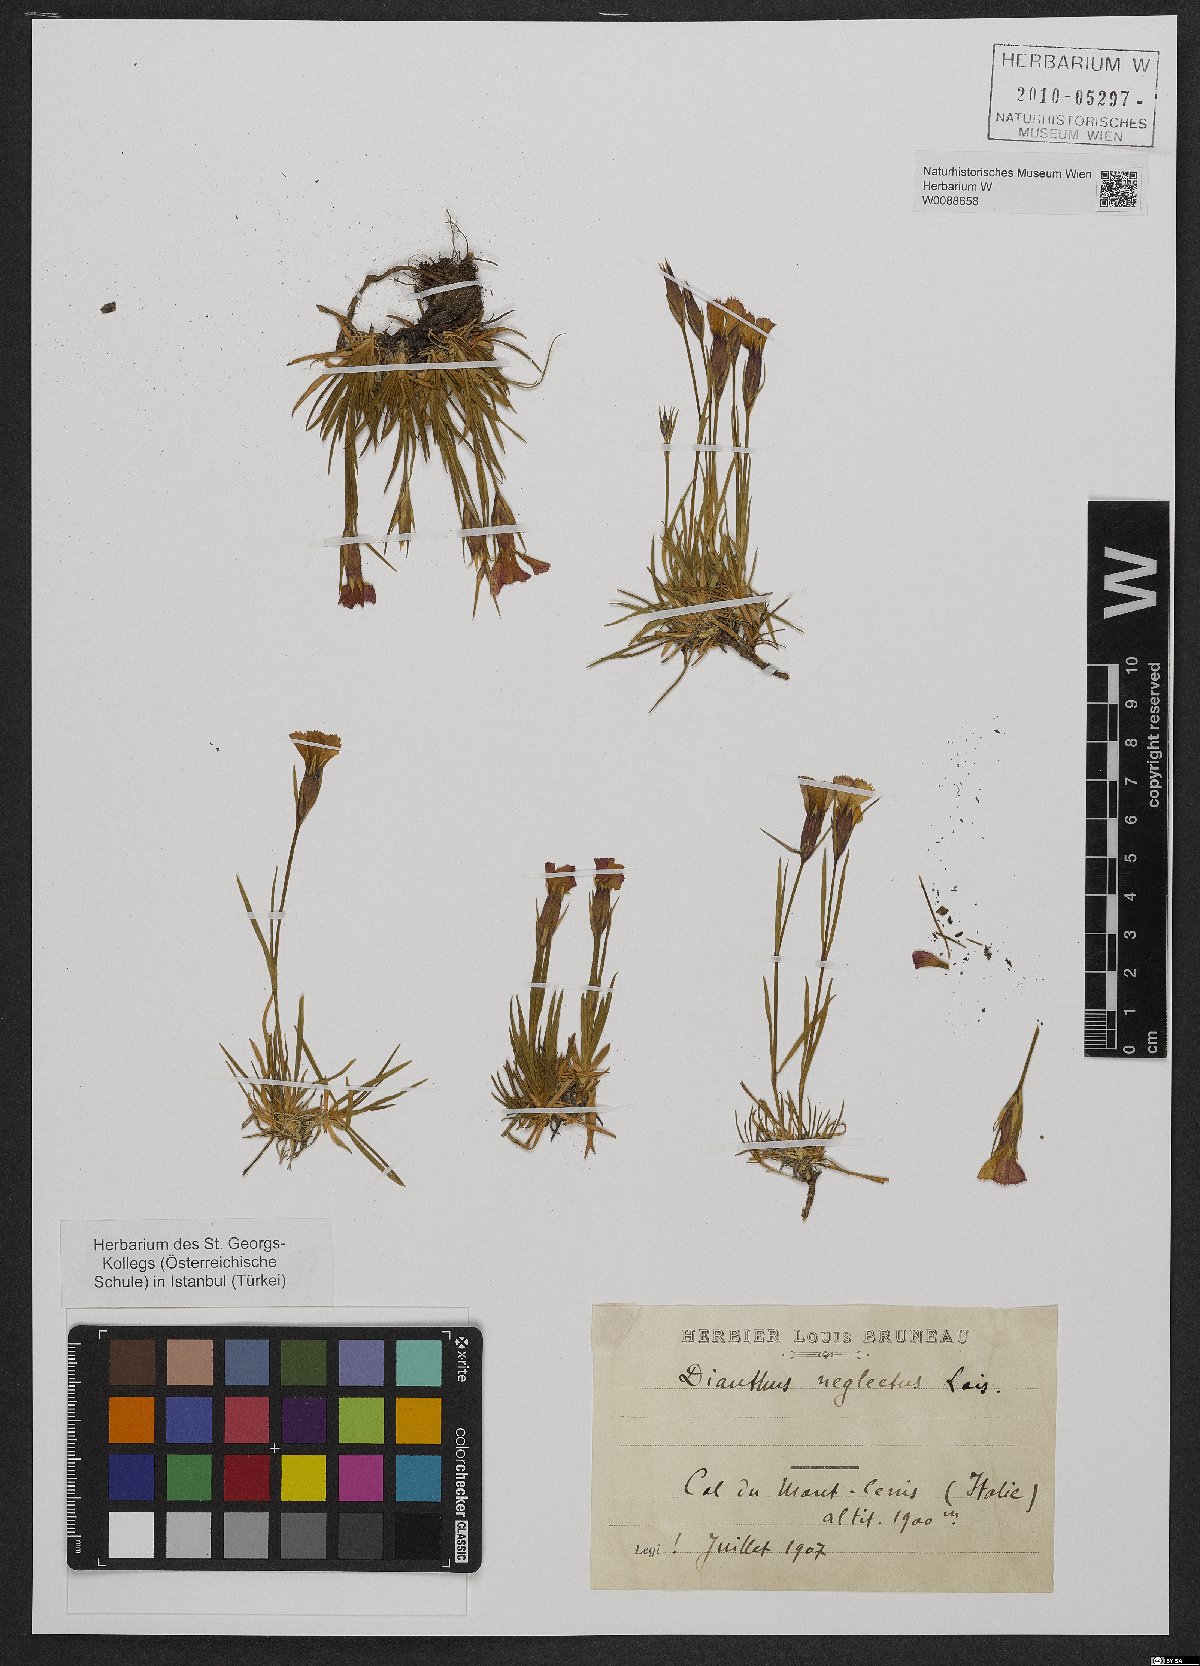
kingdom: Plantae
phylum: Tracheophyta
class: Magnoliopsida
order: Caryophyllales
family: Caryophyllaceae
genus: Dianthus
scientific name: Dianthus pavonius
